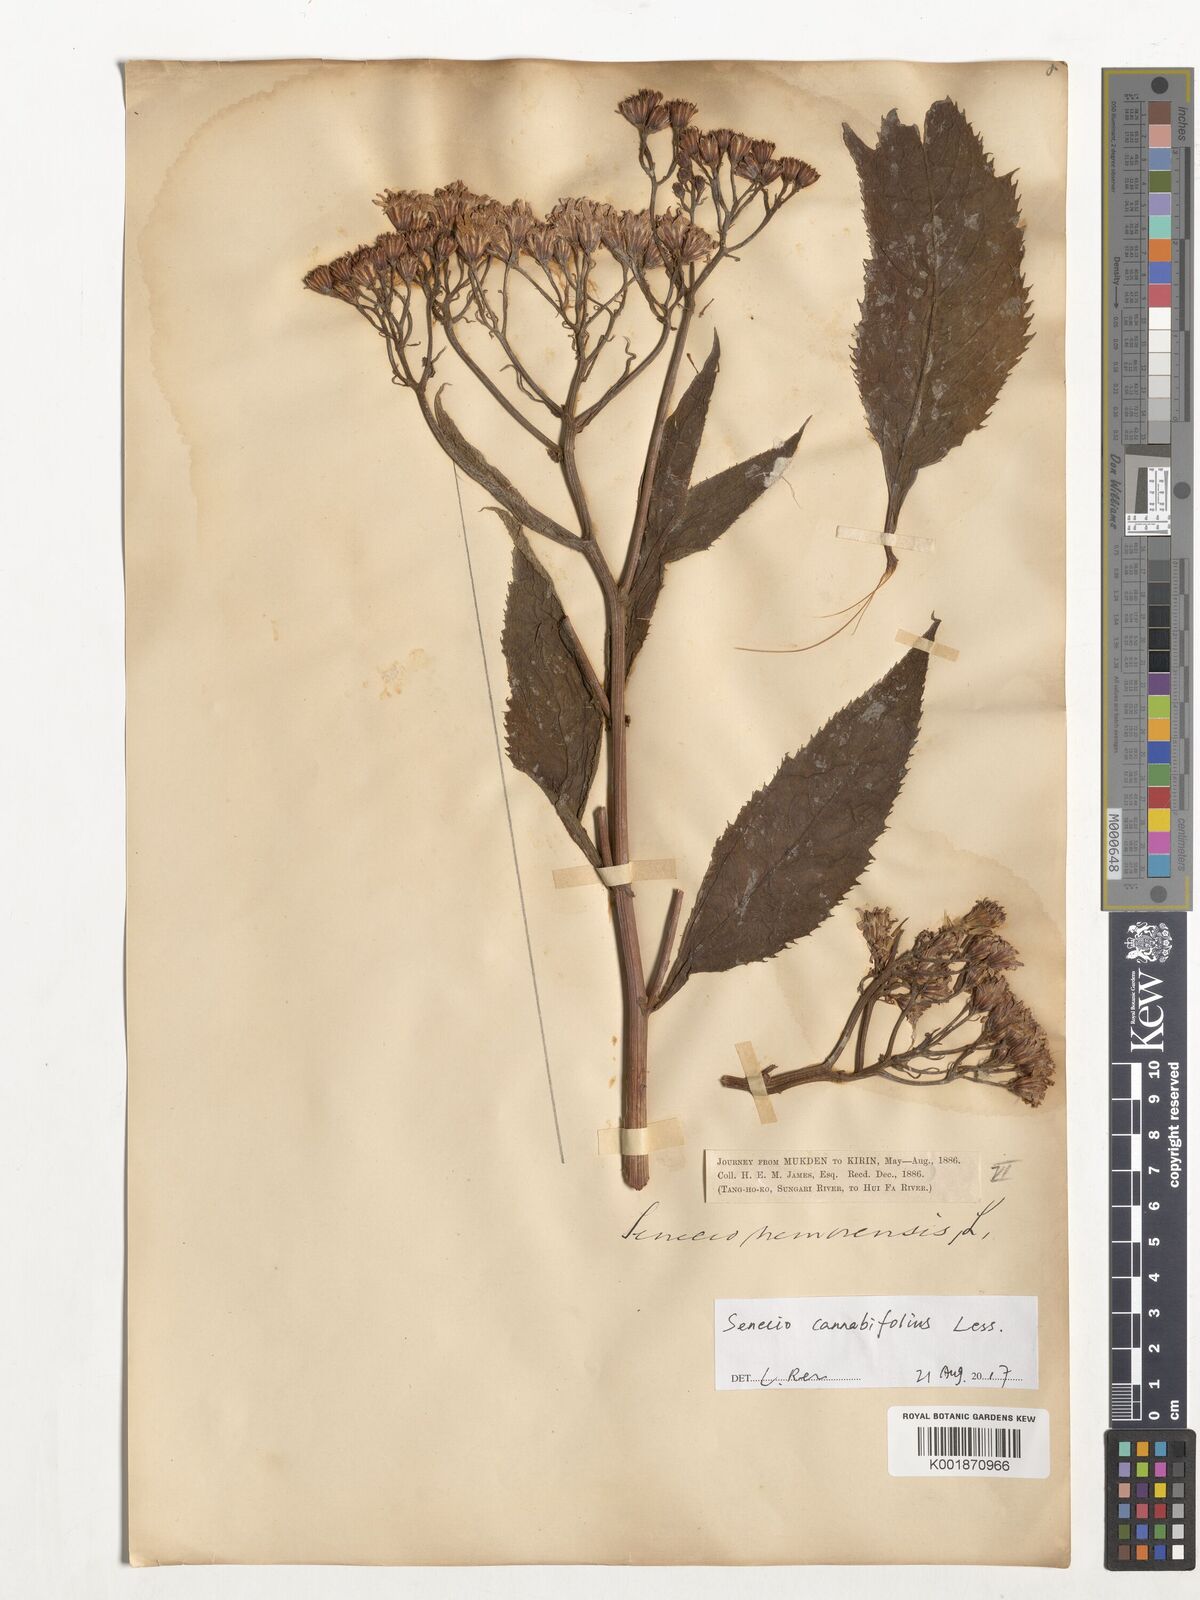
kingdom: Plantae
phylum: Tracheophyta
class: Magnoliopsida
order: Asterales
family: Asteraceae
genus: Jacobaea
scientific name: Jacobaea cannabifolia
